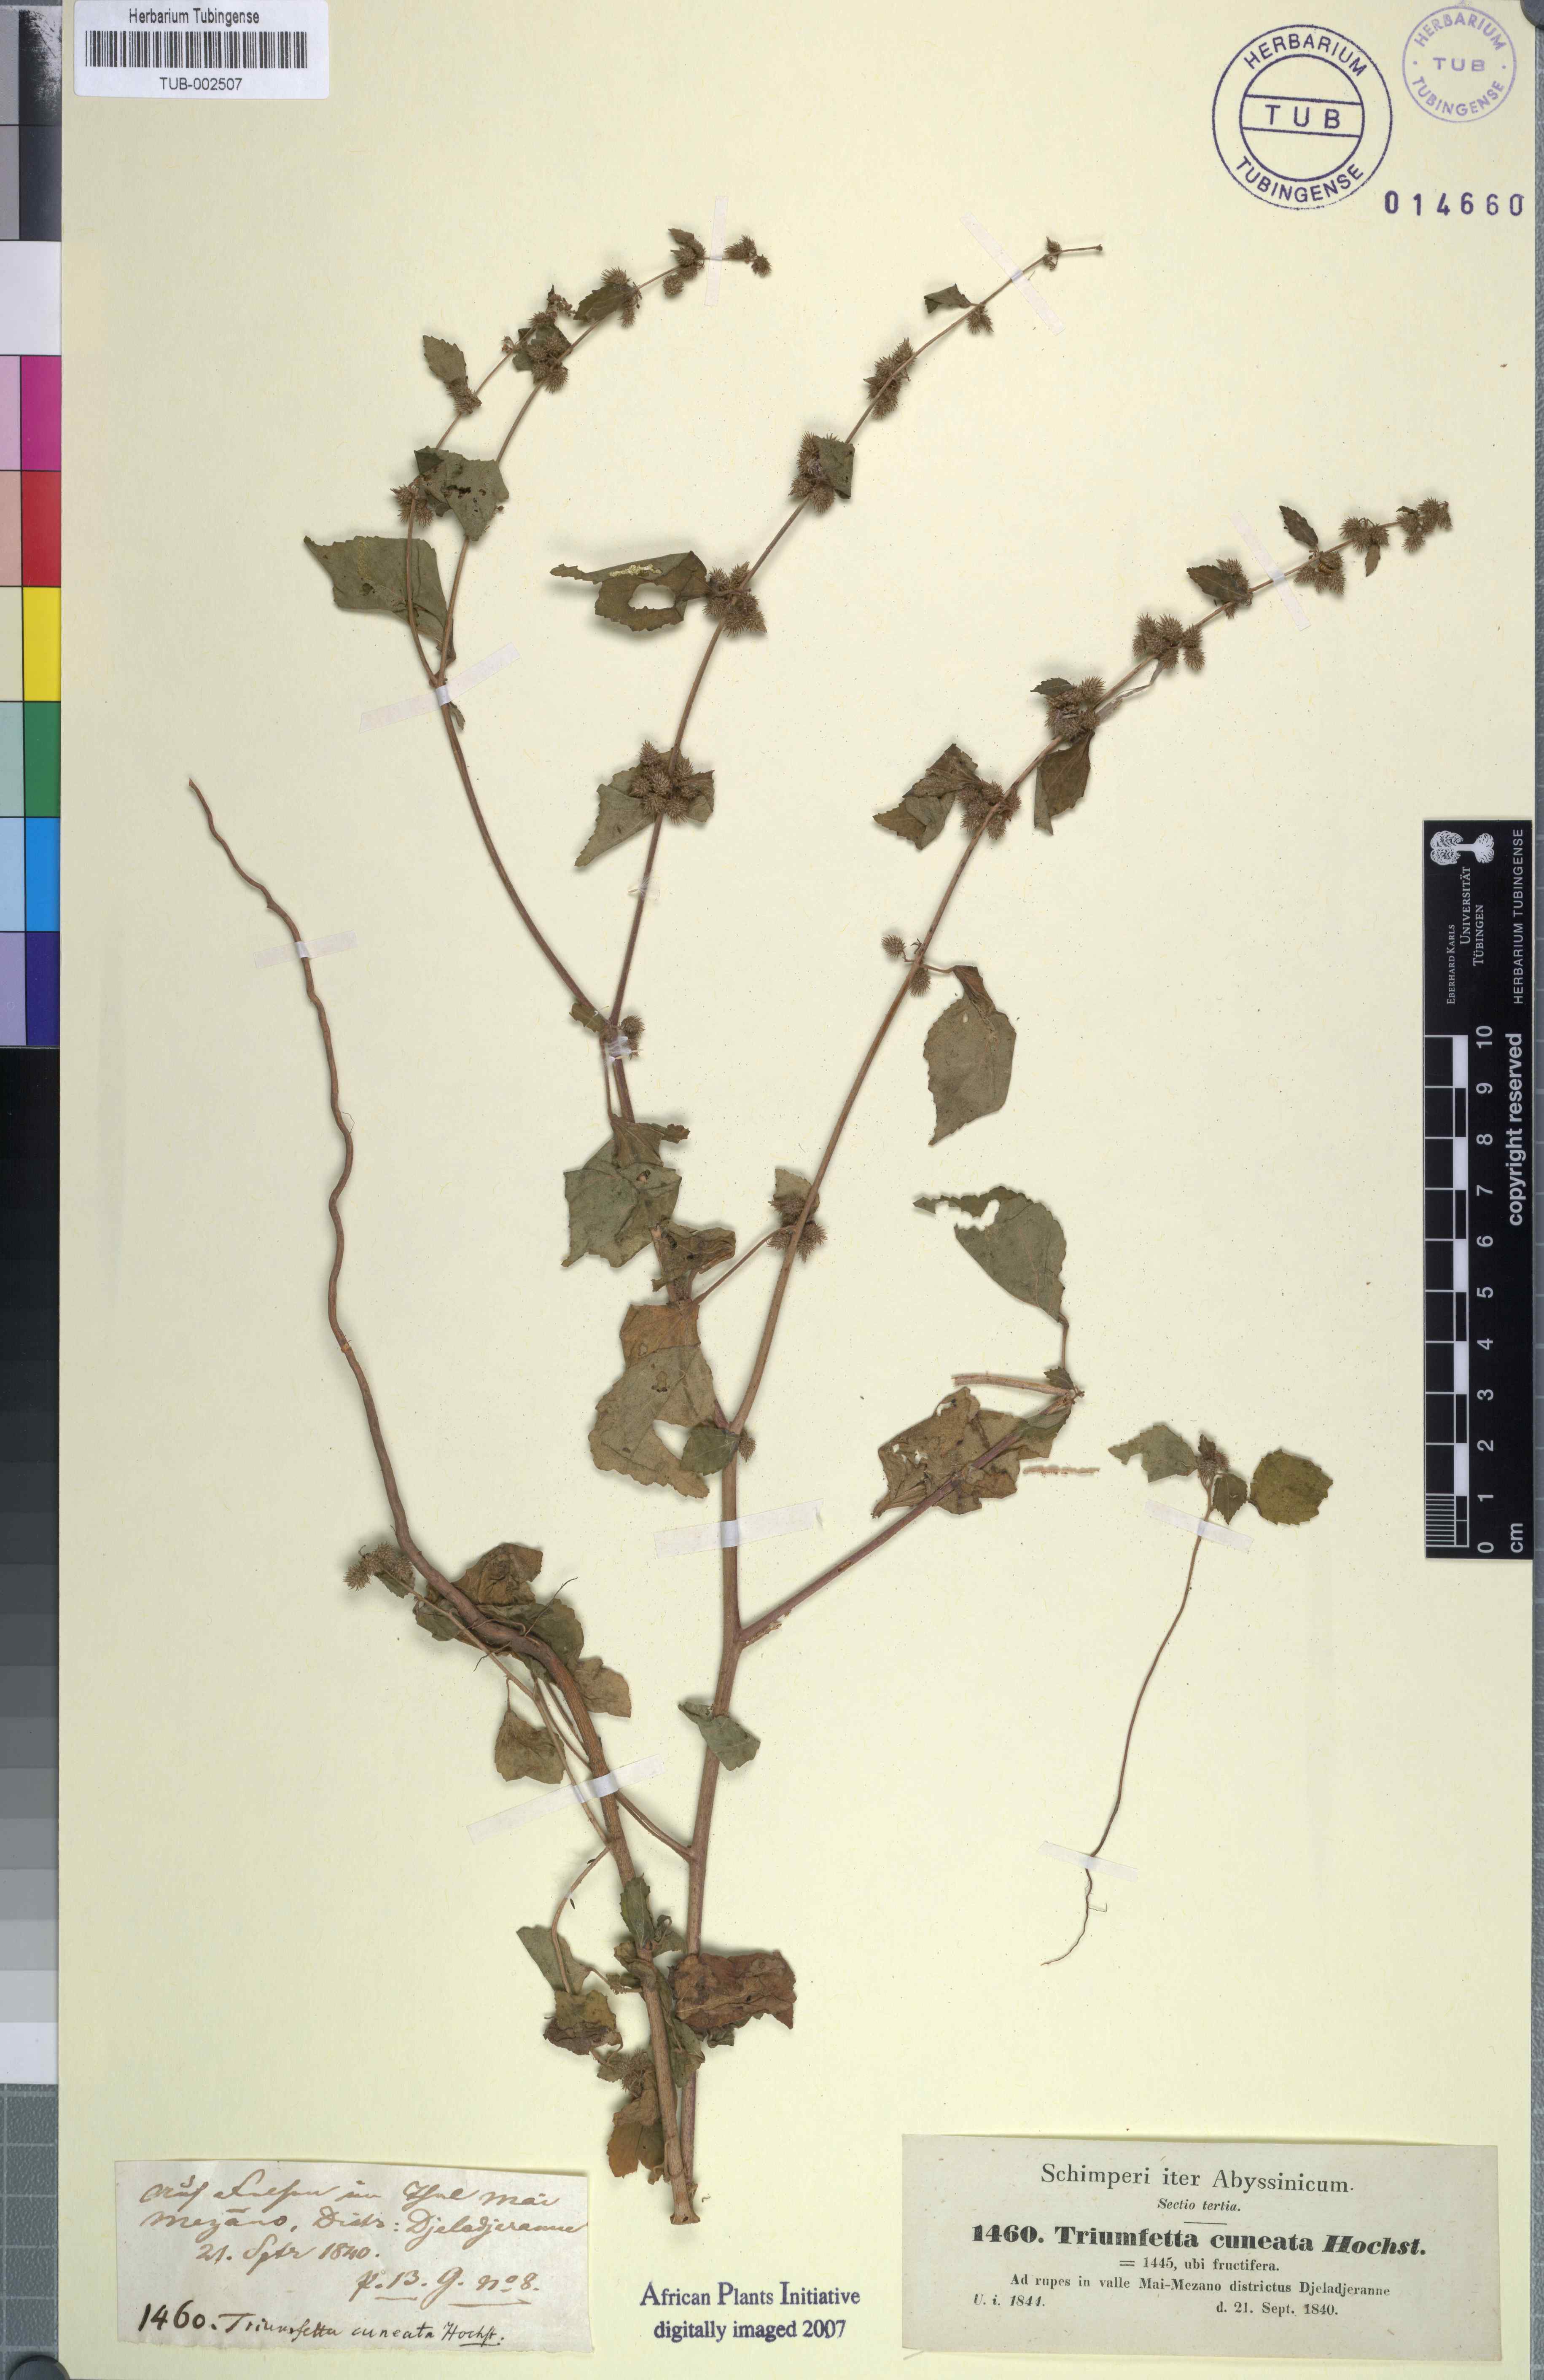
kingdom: Plantae
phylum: Tracheophyta
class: Magnoliopsida
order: Malvales
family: Malvaceae
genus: Triumfetta
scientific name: Triumfetta pentandra
